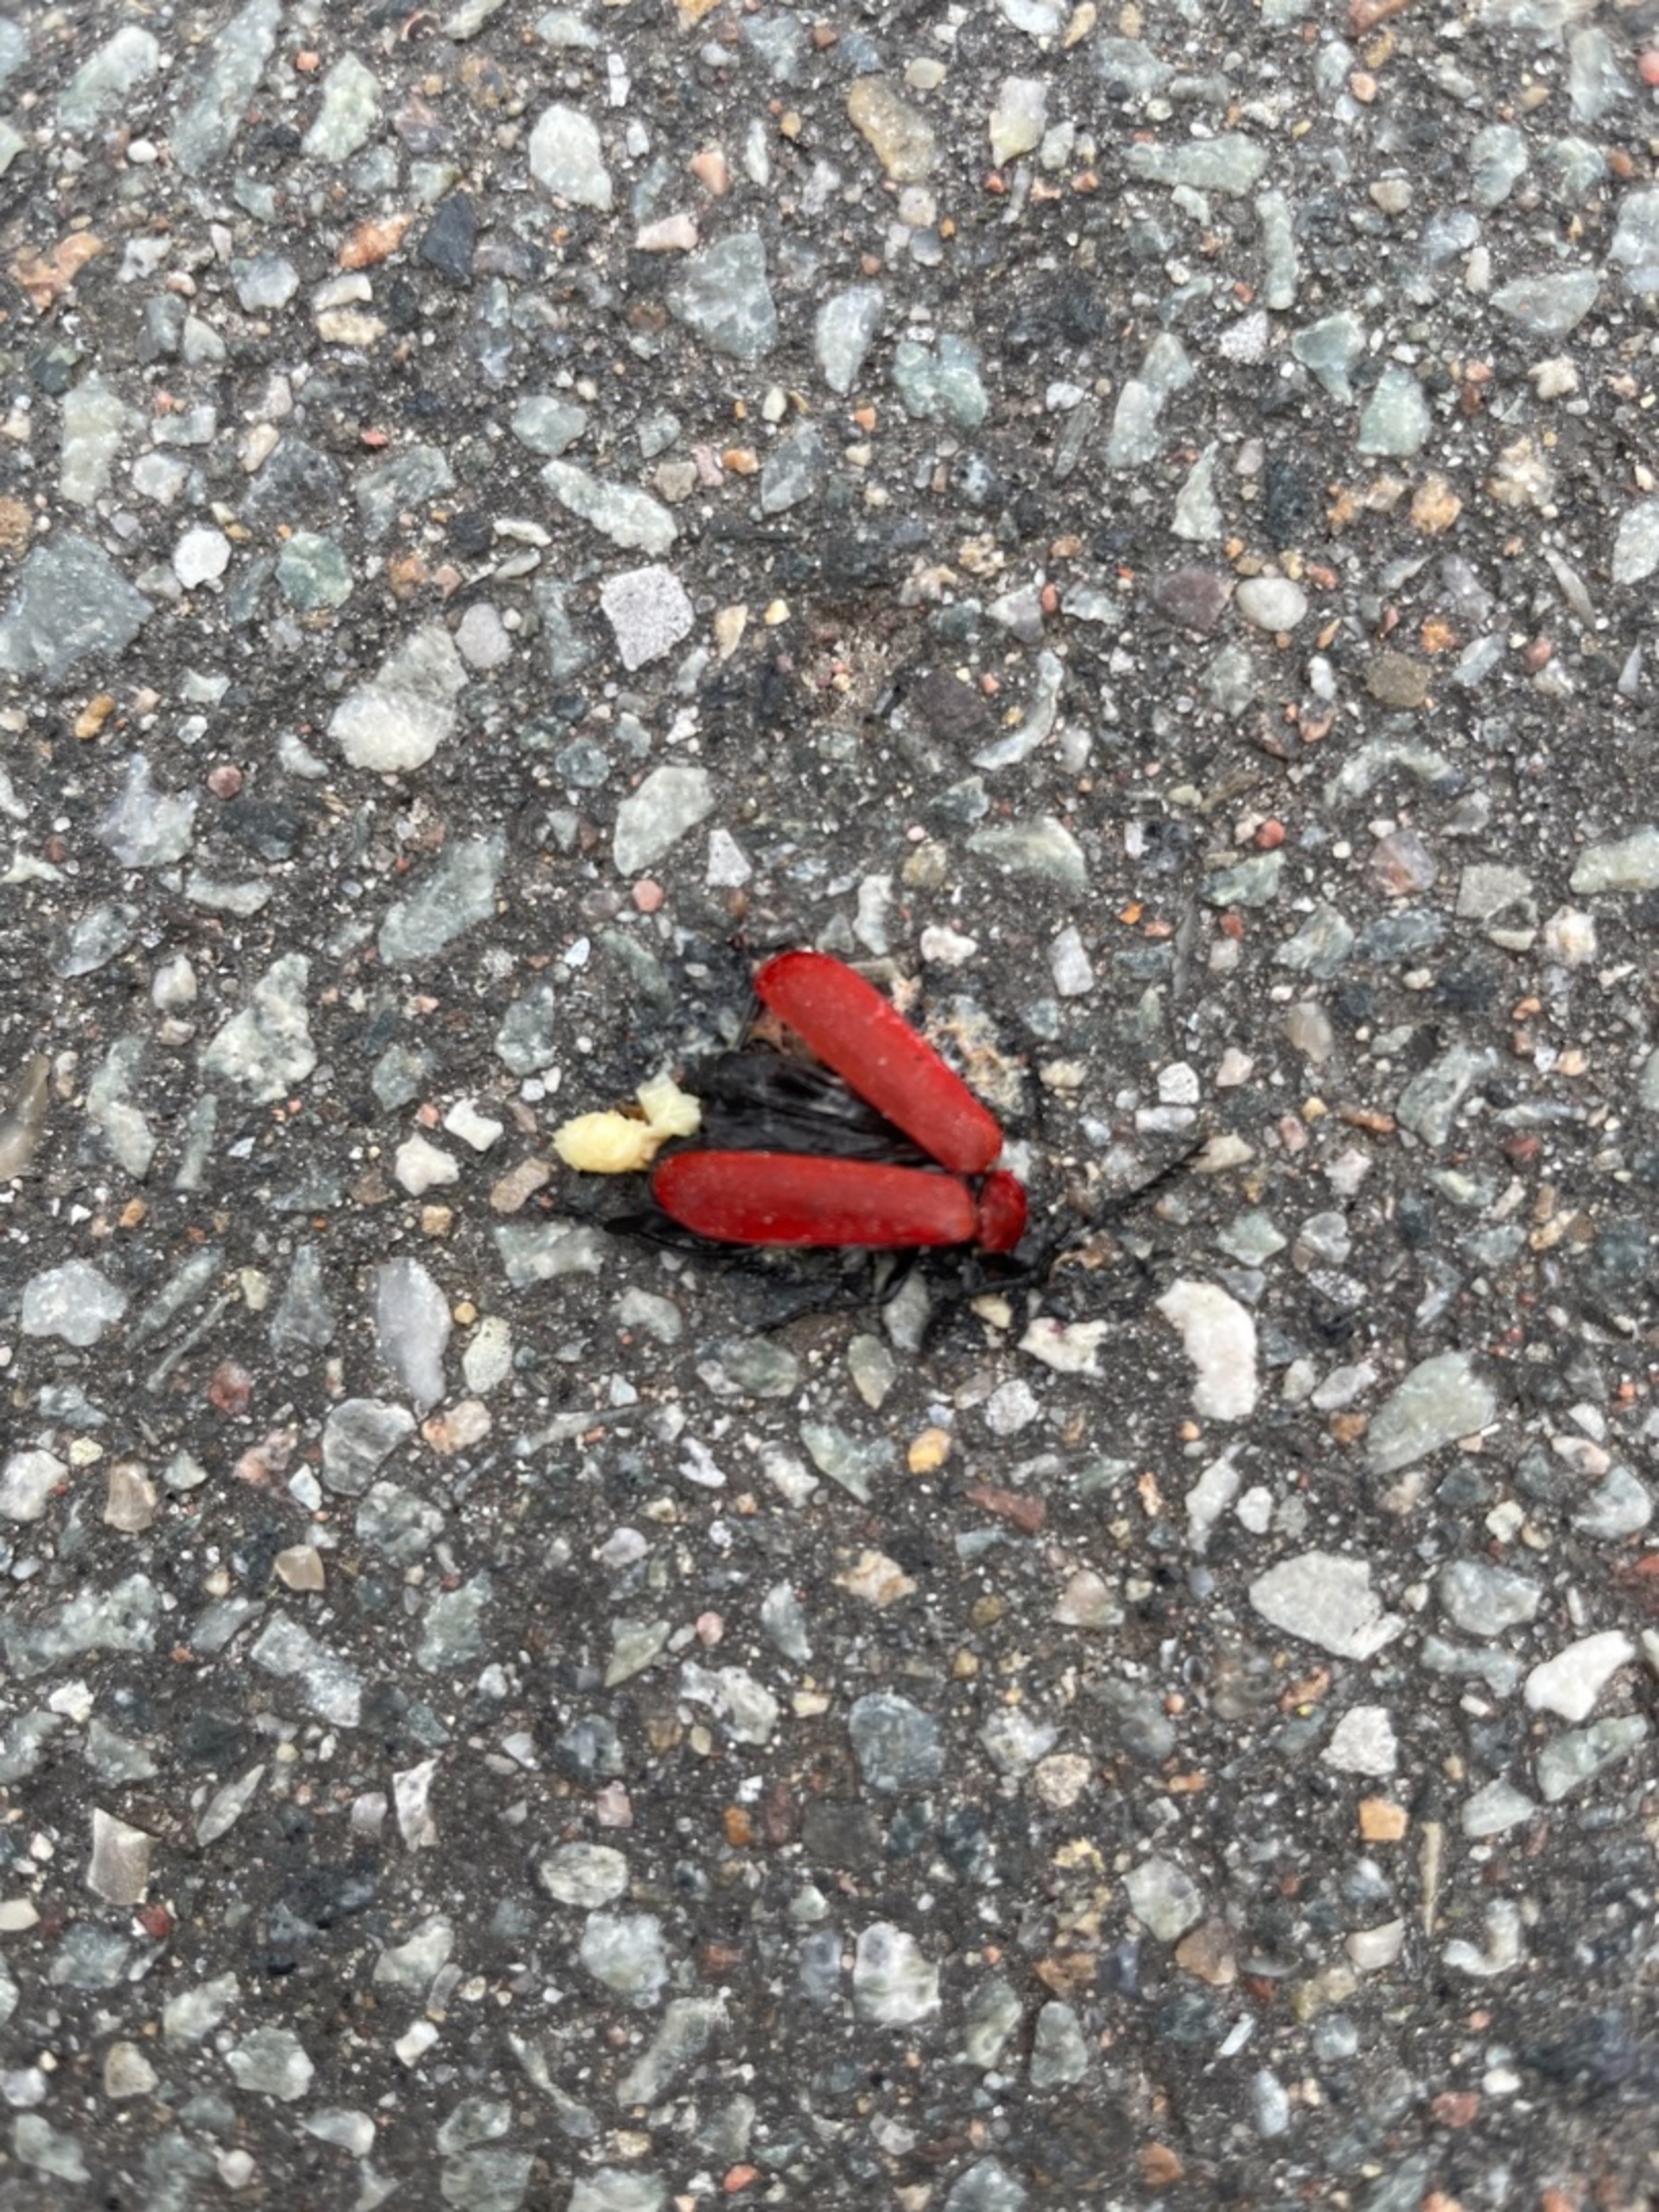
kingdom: Animalia
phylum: Arthropoda
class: Insecta
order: Coleoptera
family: Pyrochroidae
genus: Pyrochroa
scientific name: Pyrochroa coccinea
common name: Sorthovedet kardinalbille
